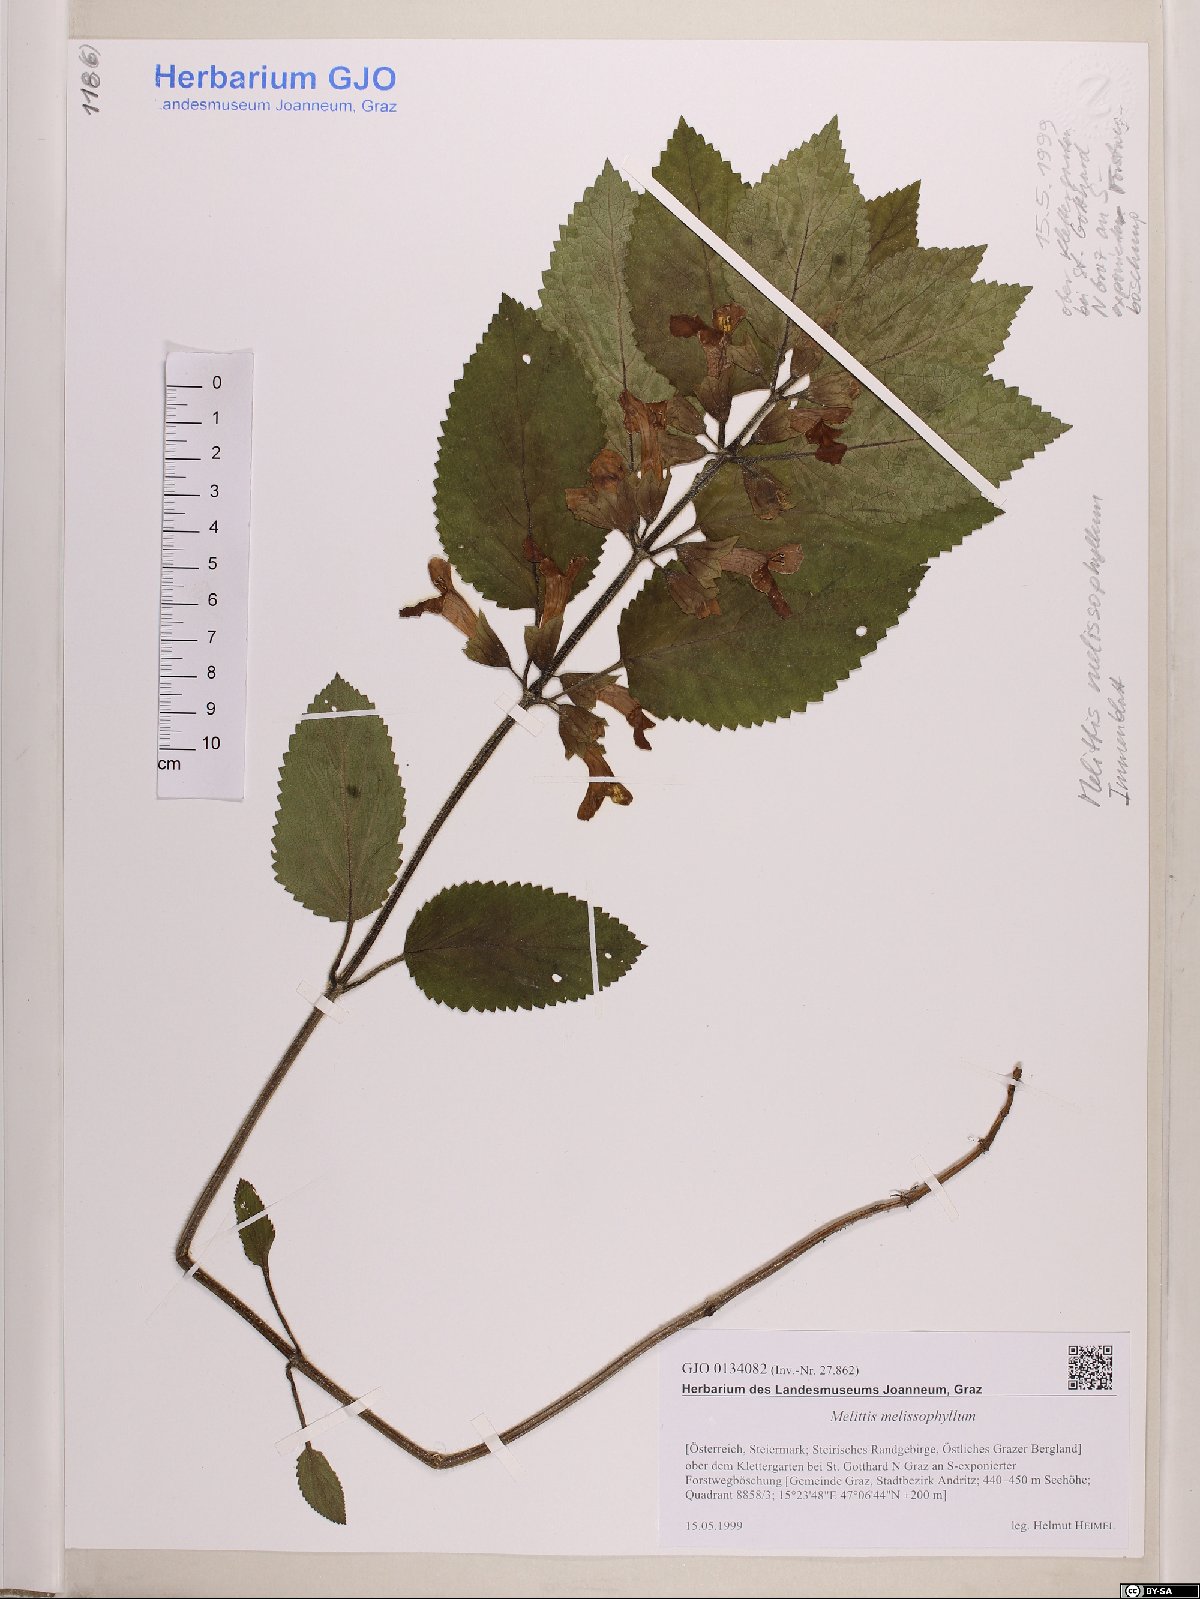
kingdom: Plantae
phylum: Tracheophyta
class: Magnoliopsida
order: Lamiales
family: Lamiaceae
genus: Melittis
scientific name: Melittis melissophyllum
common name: Bastard balm
